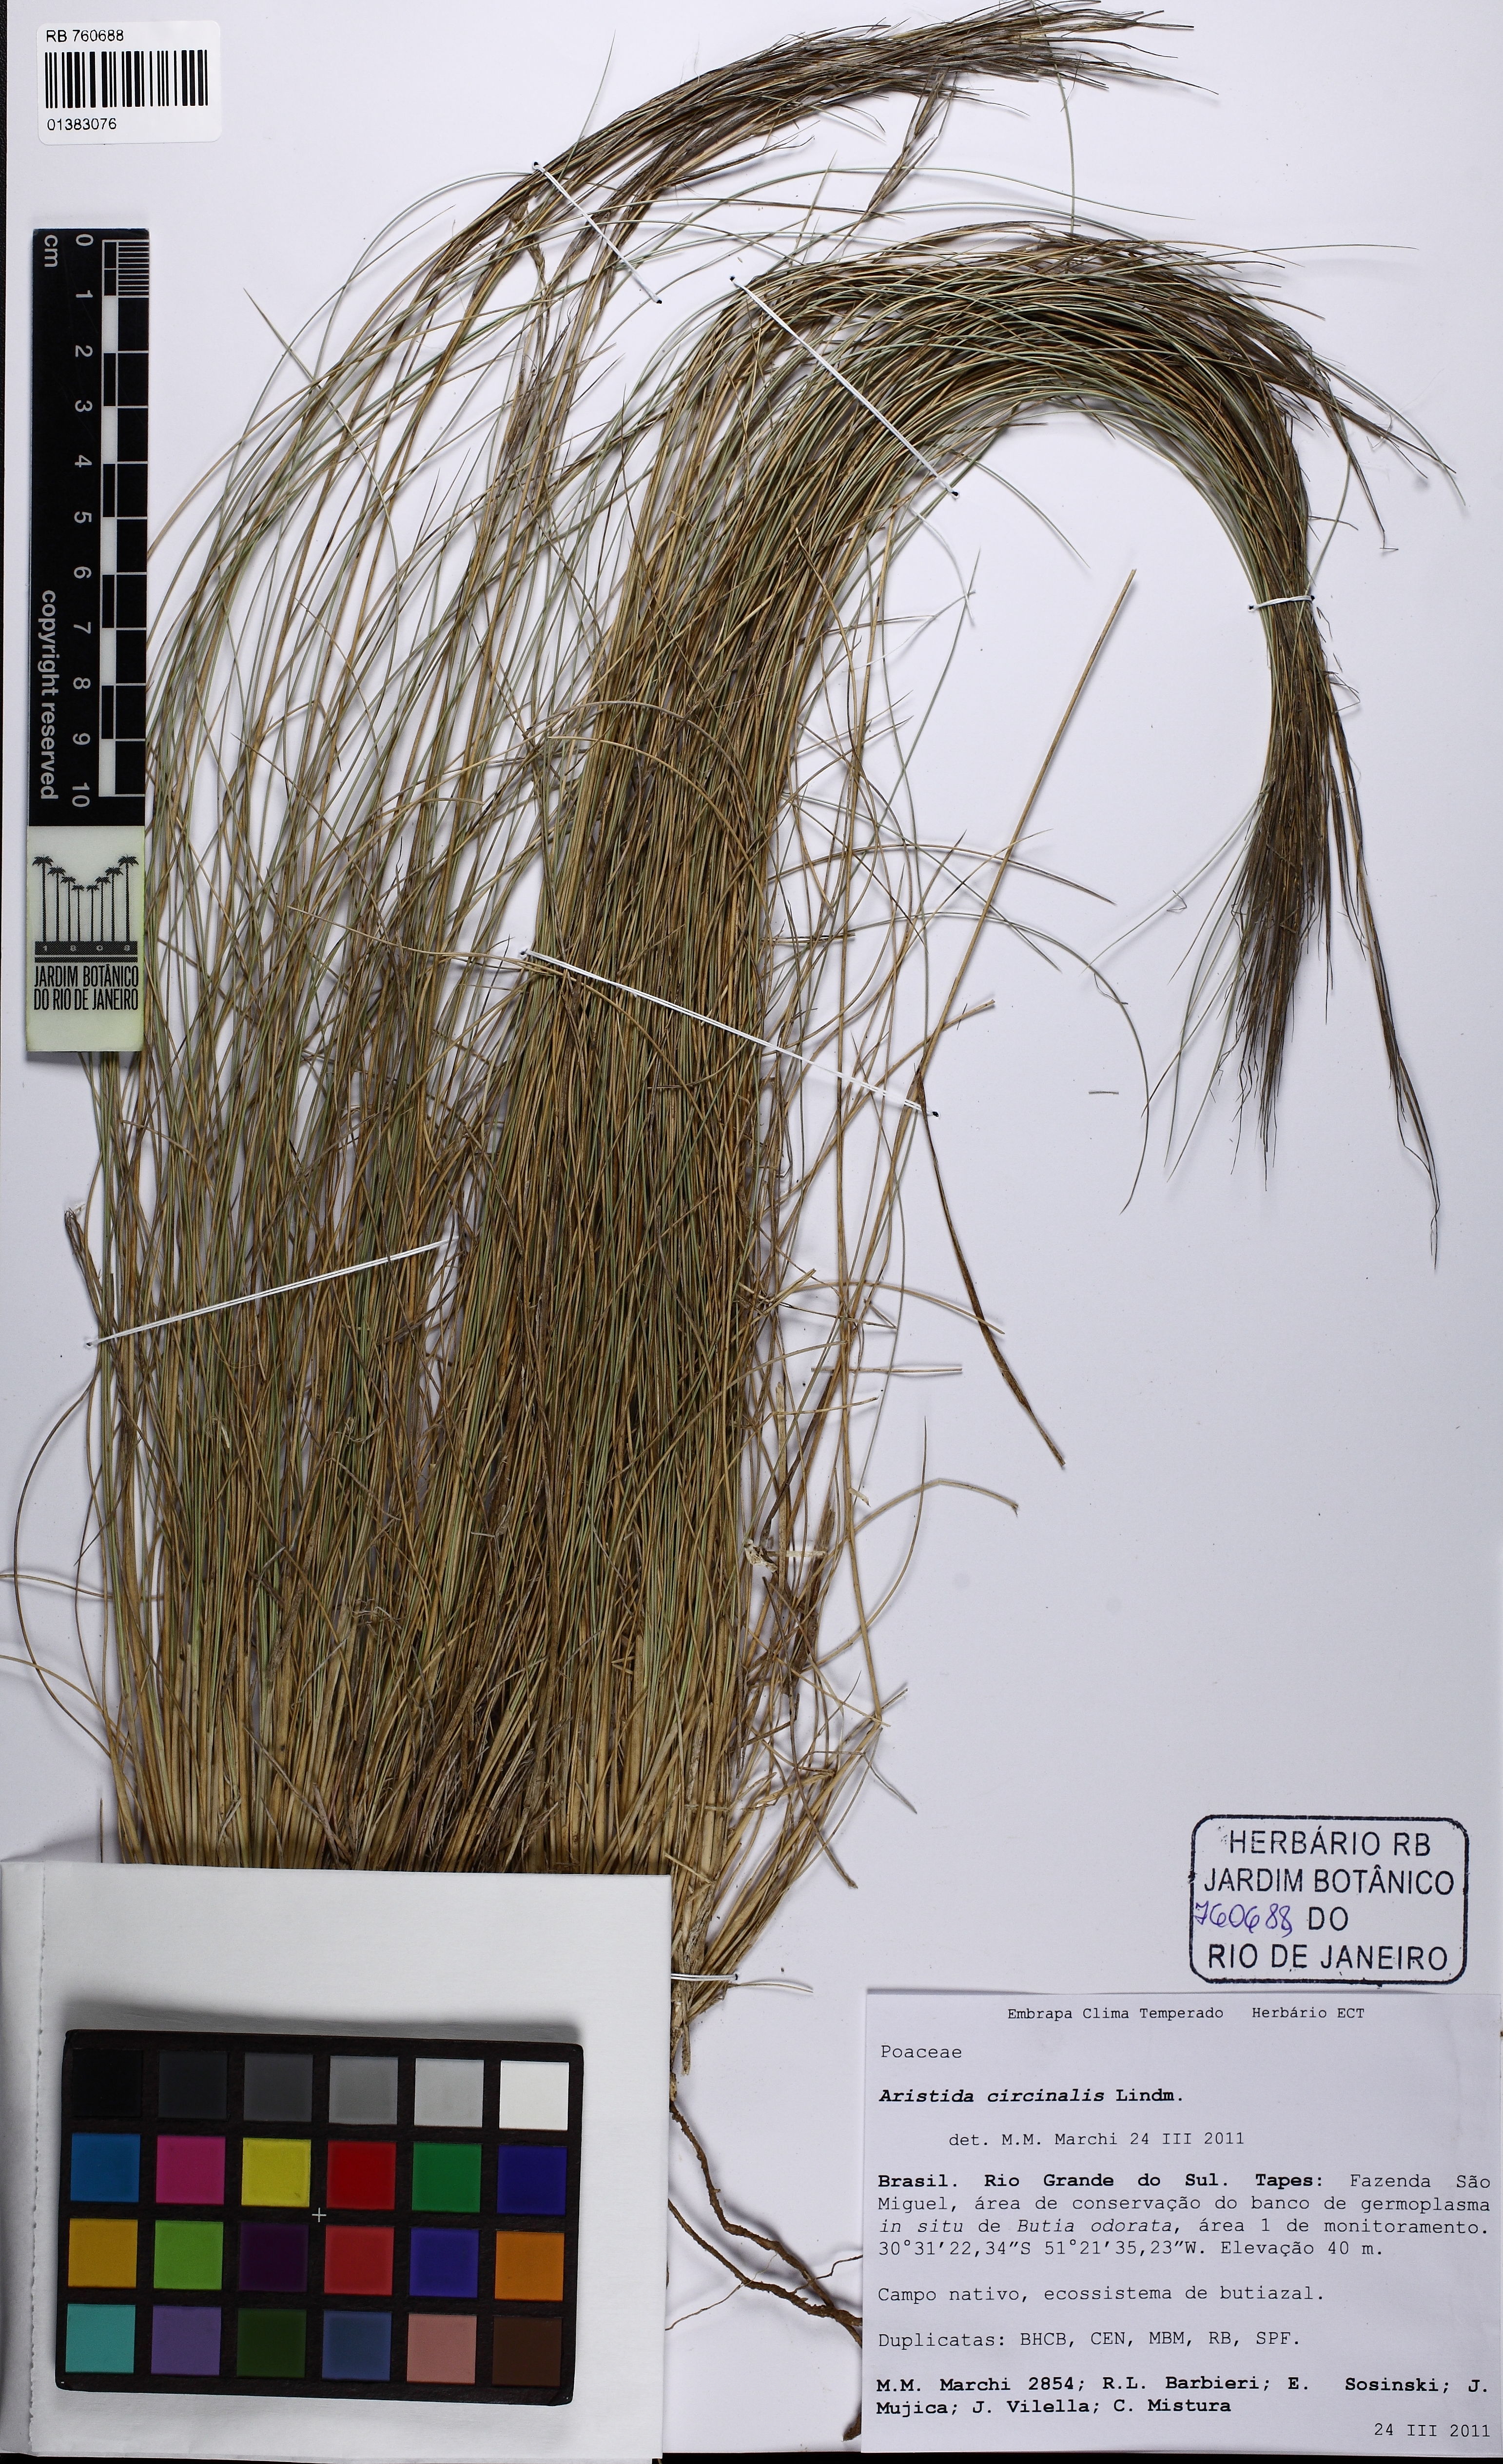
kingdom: Plantae
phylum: Tracheophyta
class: Liliopsida
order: Poales
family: Poaceae
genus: Aristida
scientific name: Aristida circinalis
